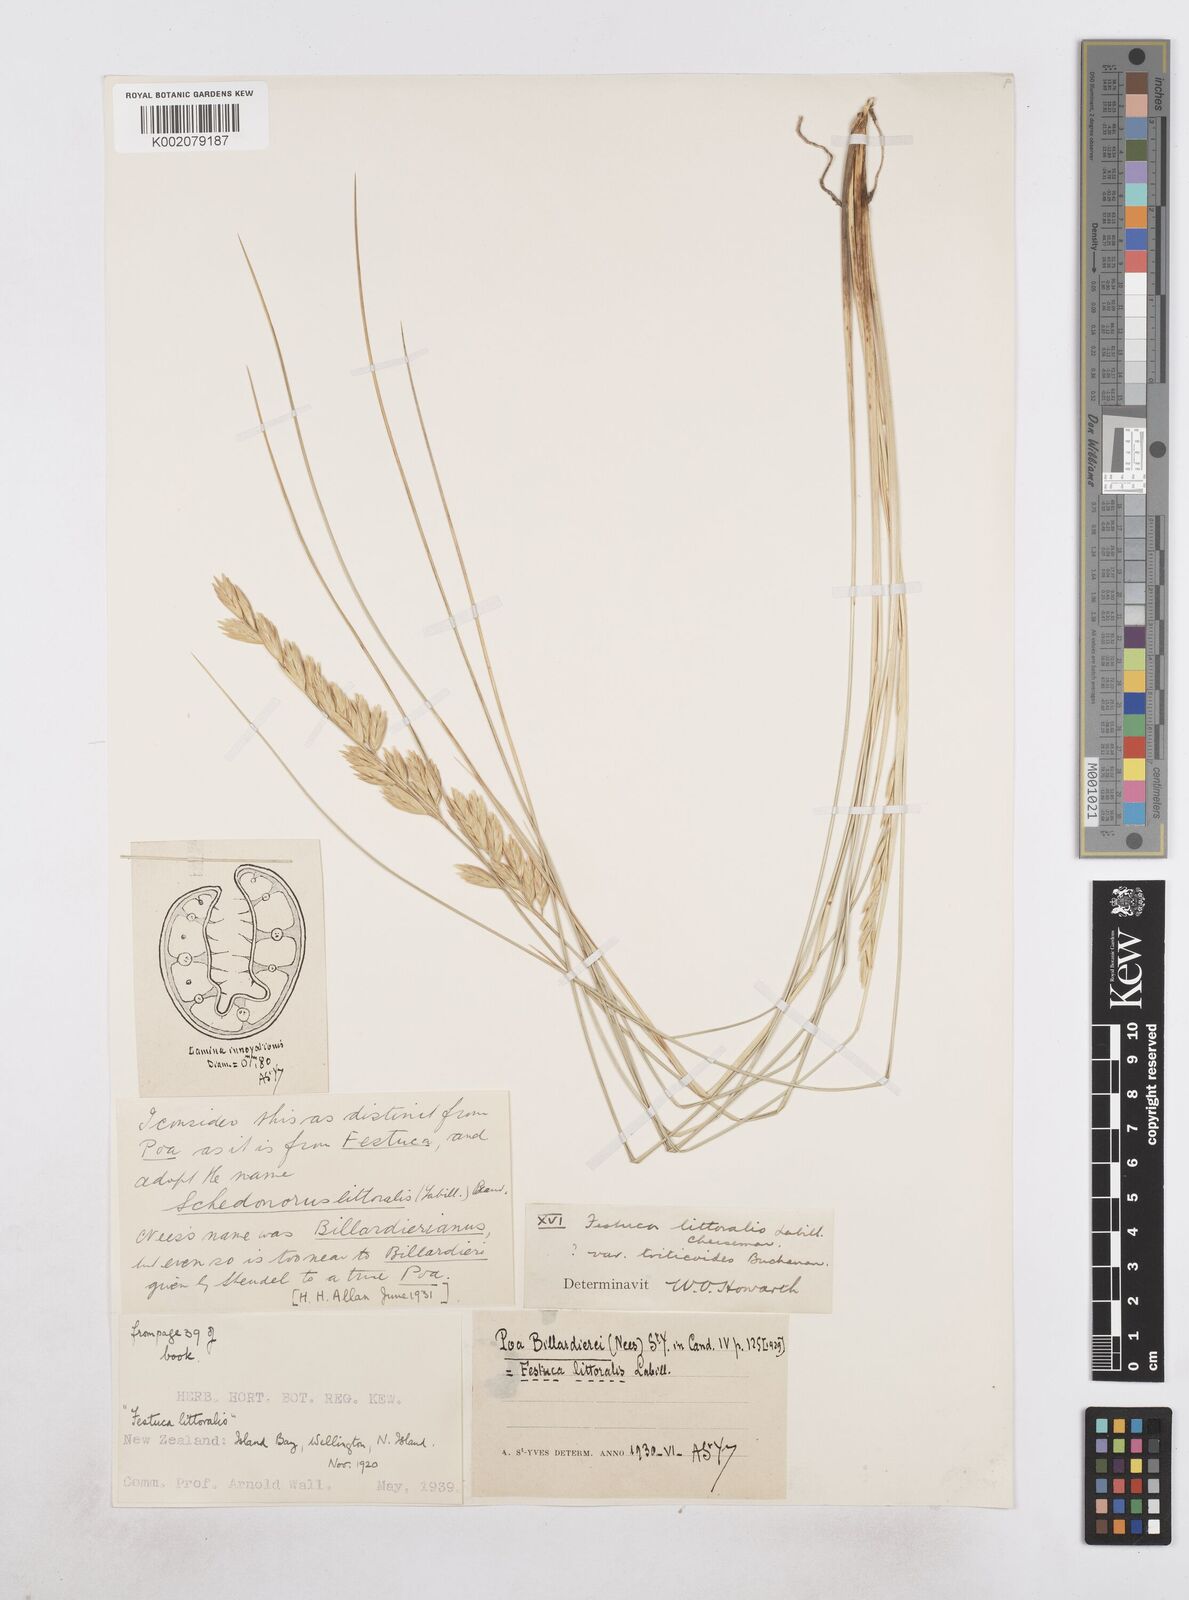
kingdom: Plantae
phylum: Tracheophyta
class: Liliopsida
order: Poales
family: Poaceae
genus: Poa
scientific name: Poa triodioides
